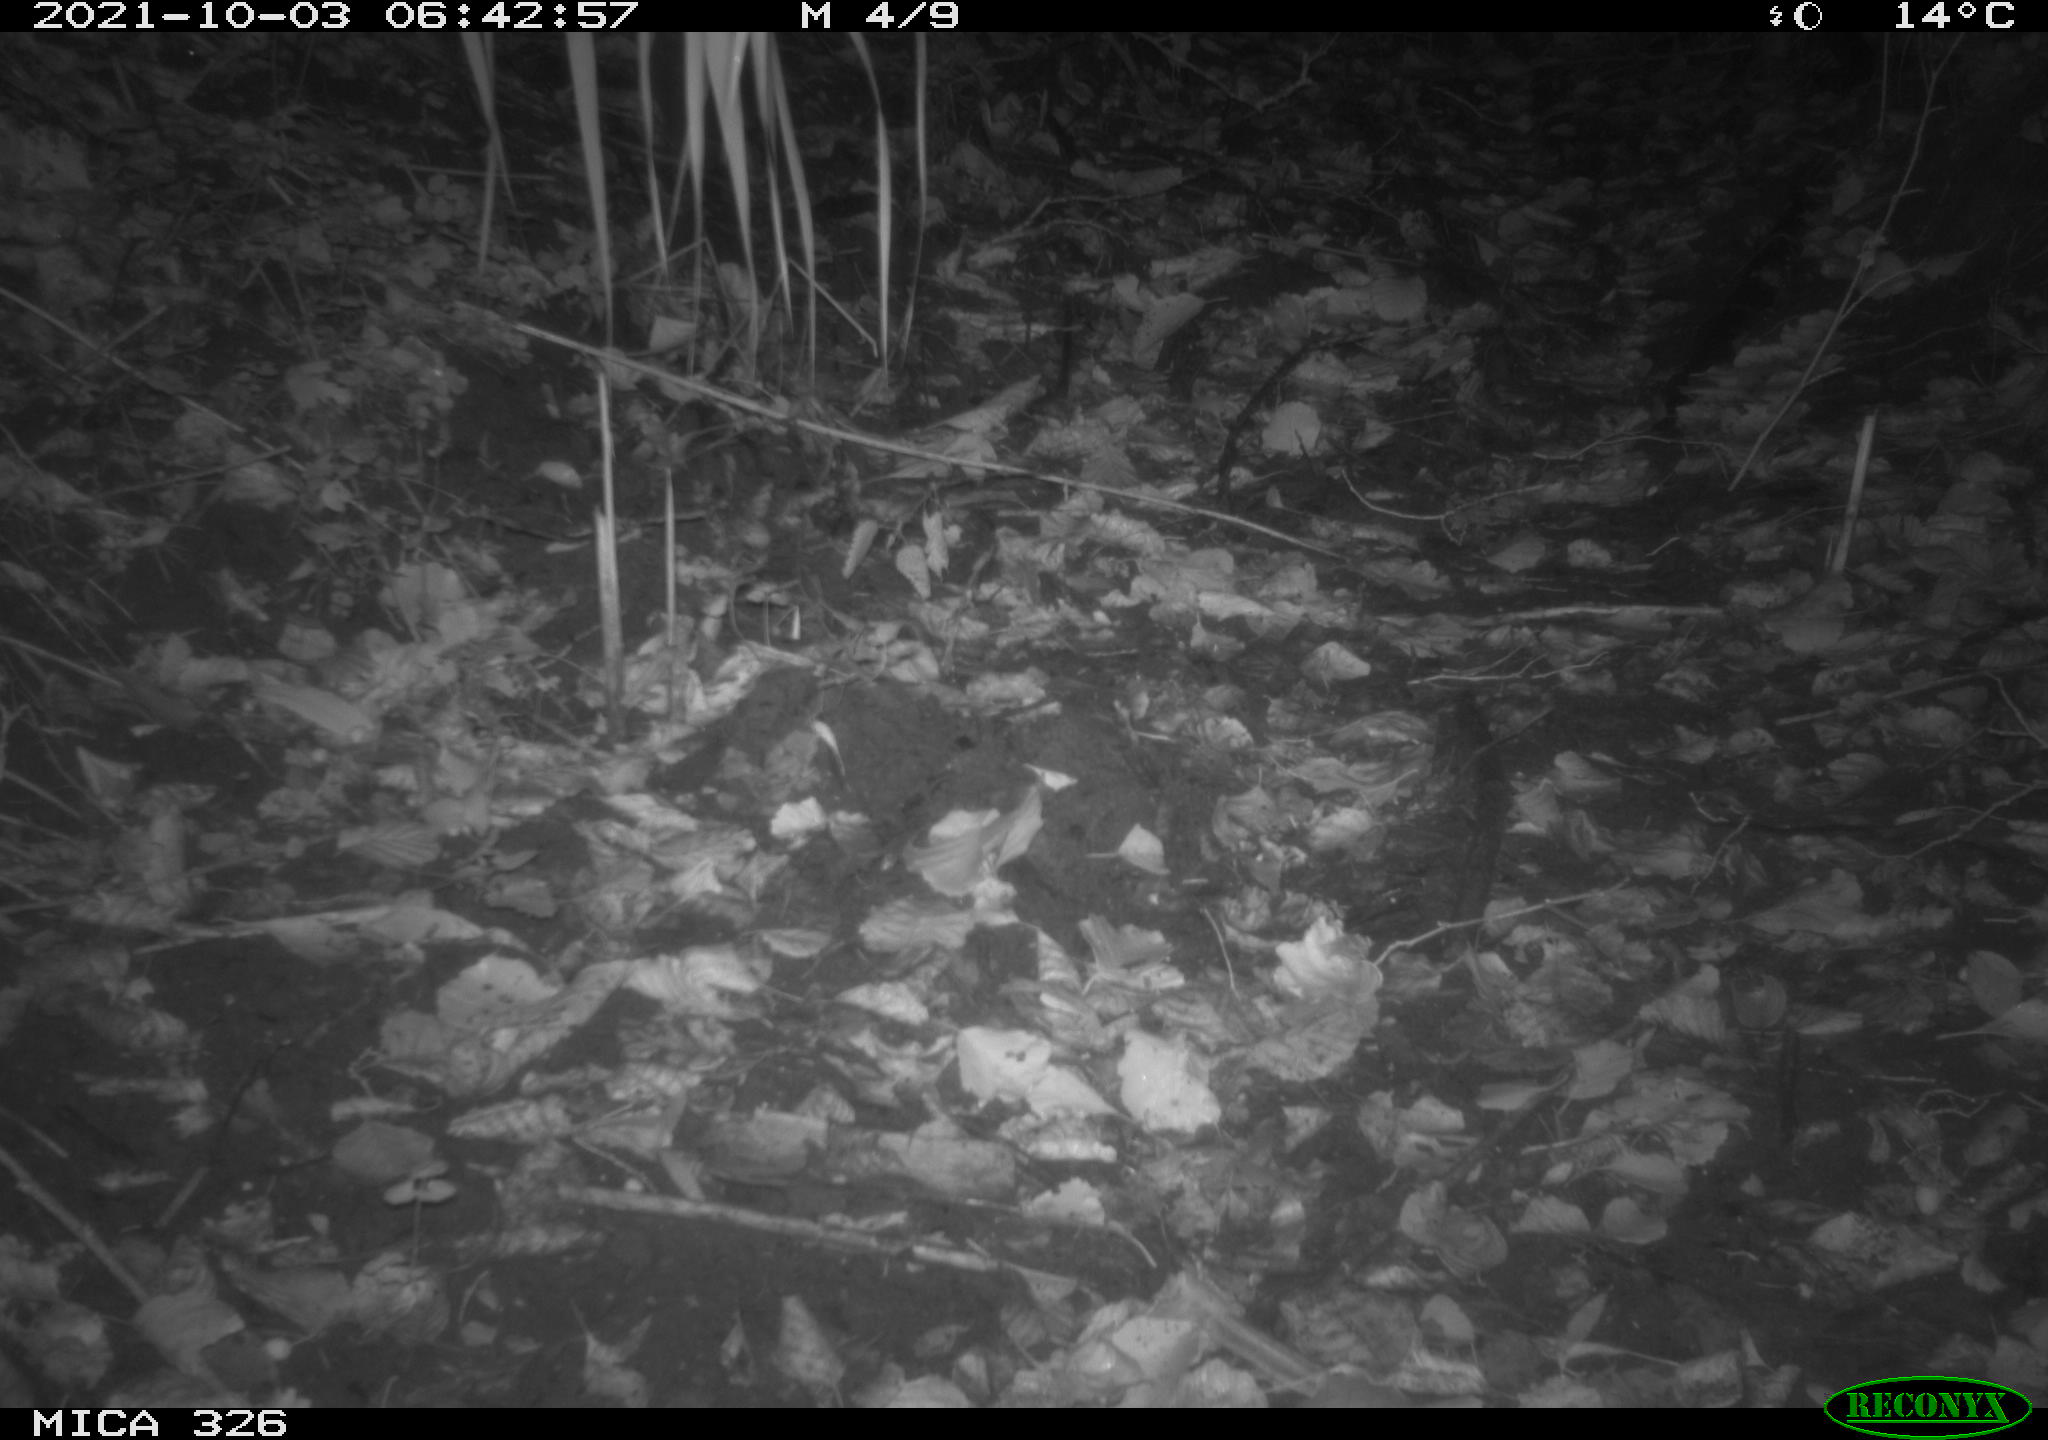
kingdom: Animalia
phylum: Chordata
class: Mammalia
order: Rodentia
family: Muridae
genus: Rattus
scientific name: Rattus norvegicus
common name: Brown rat
